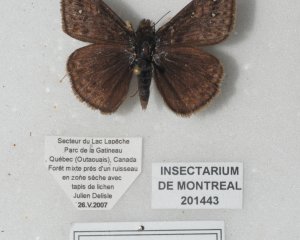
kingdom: Animalia
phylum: Arthropoda
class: Insecta
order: Lepidoptera
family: Hesperiidae
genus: Gesta
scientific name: Gesta
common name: Juvenal's Duskywing
